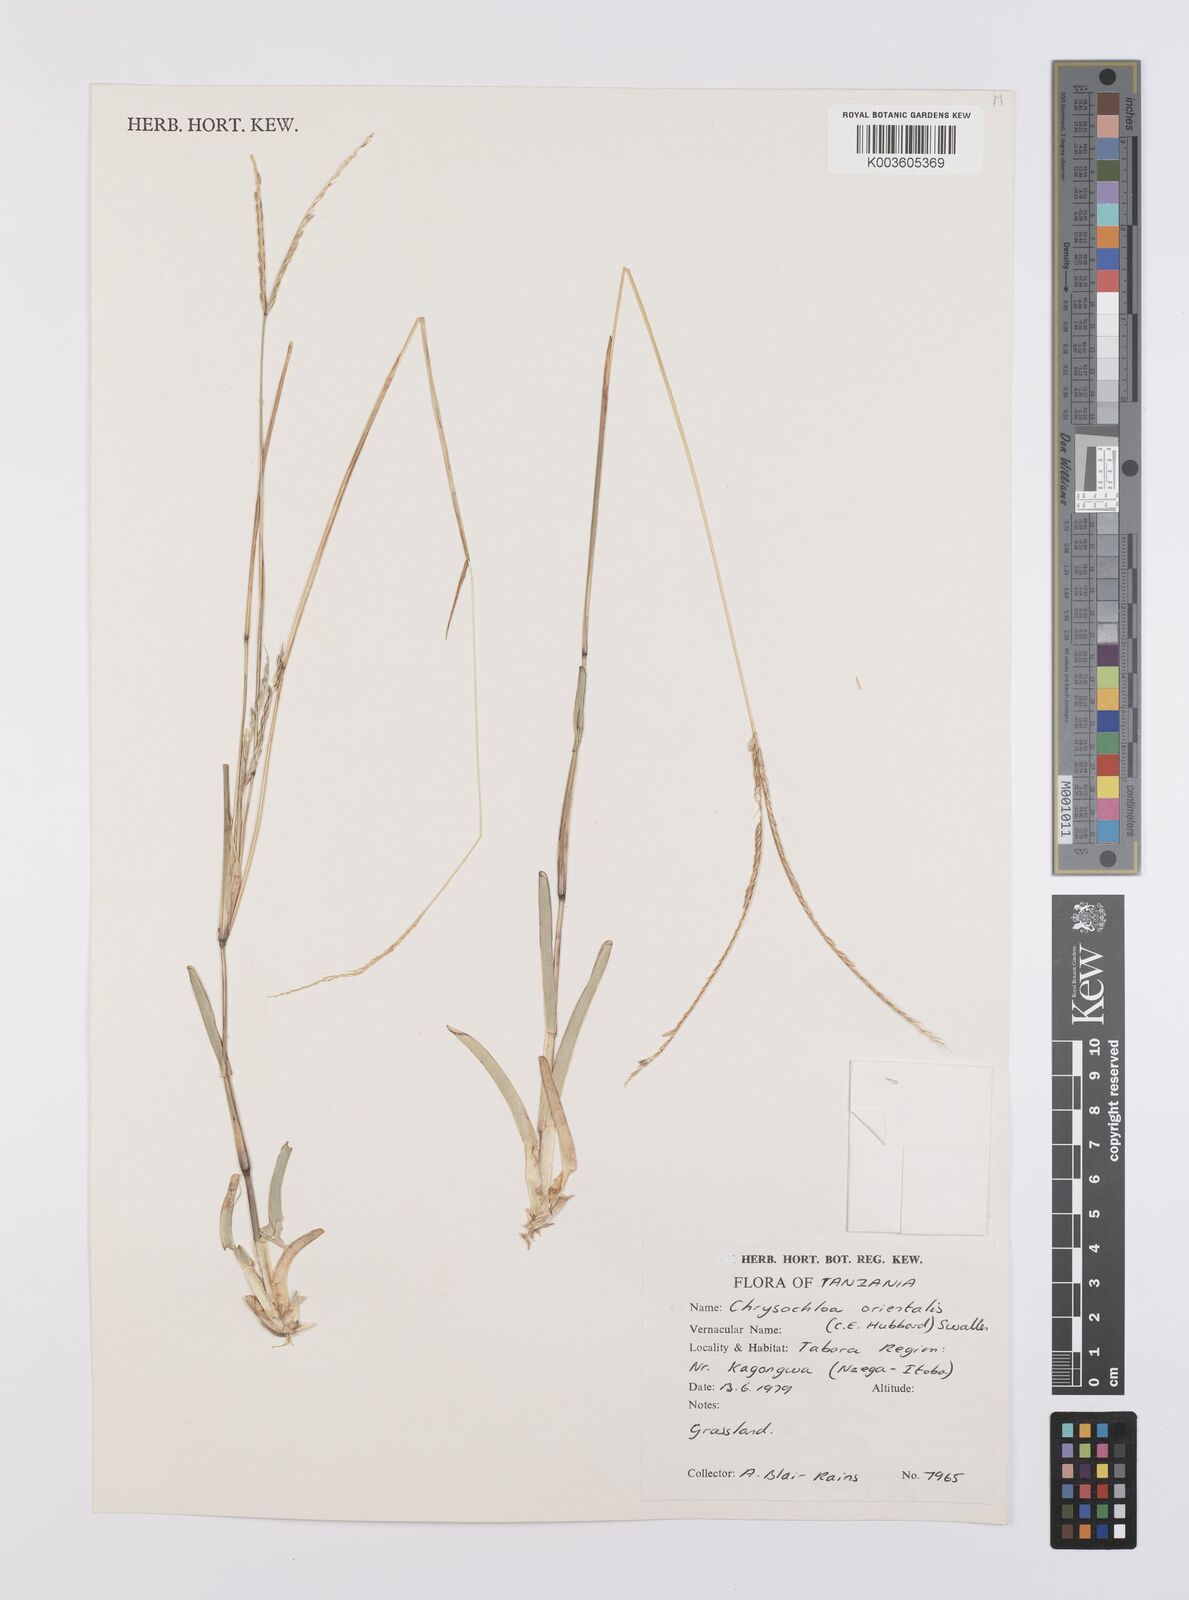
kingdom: Plantae
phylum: Tracheophyta
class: Liliopsida
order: Poales
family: Poaceae
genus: Chrysochloa
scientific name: Chrysochloa orientalis
